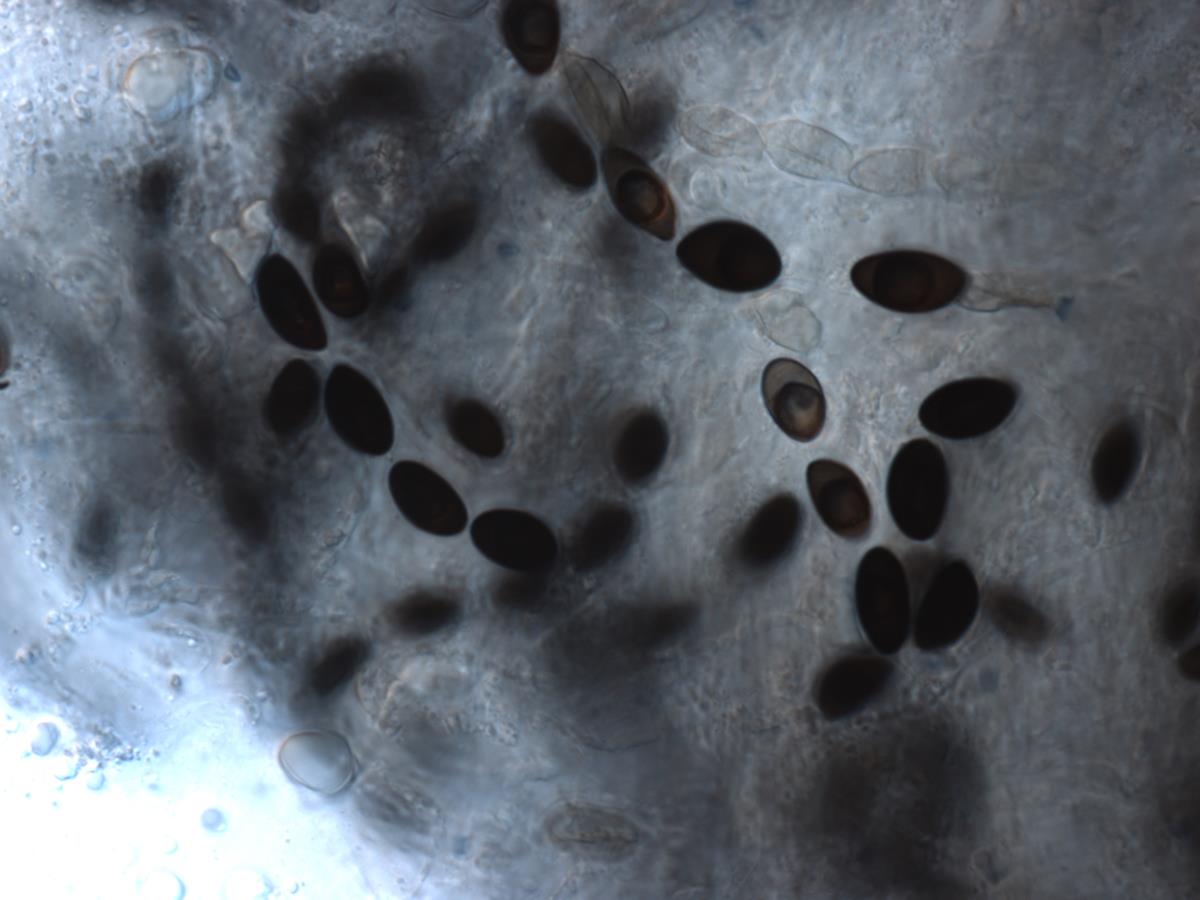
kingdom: Fungi
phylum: Ascomycota
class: Sordariomycetes
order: Xylariales
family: Xylariaceae
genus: Kretzschmaria
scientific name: Kretzschmaria
